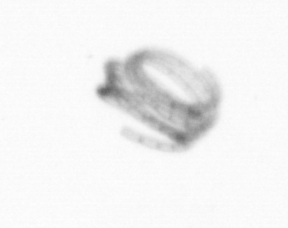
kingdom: Chromista
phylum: Ochrophyta
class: Bacillariophyceae
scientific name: Bacillariophyceae
